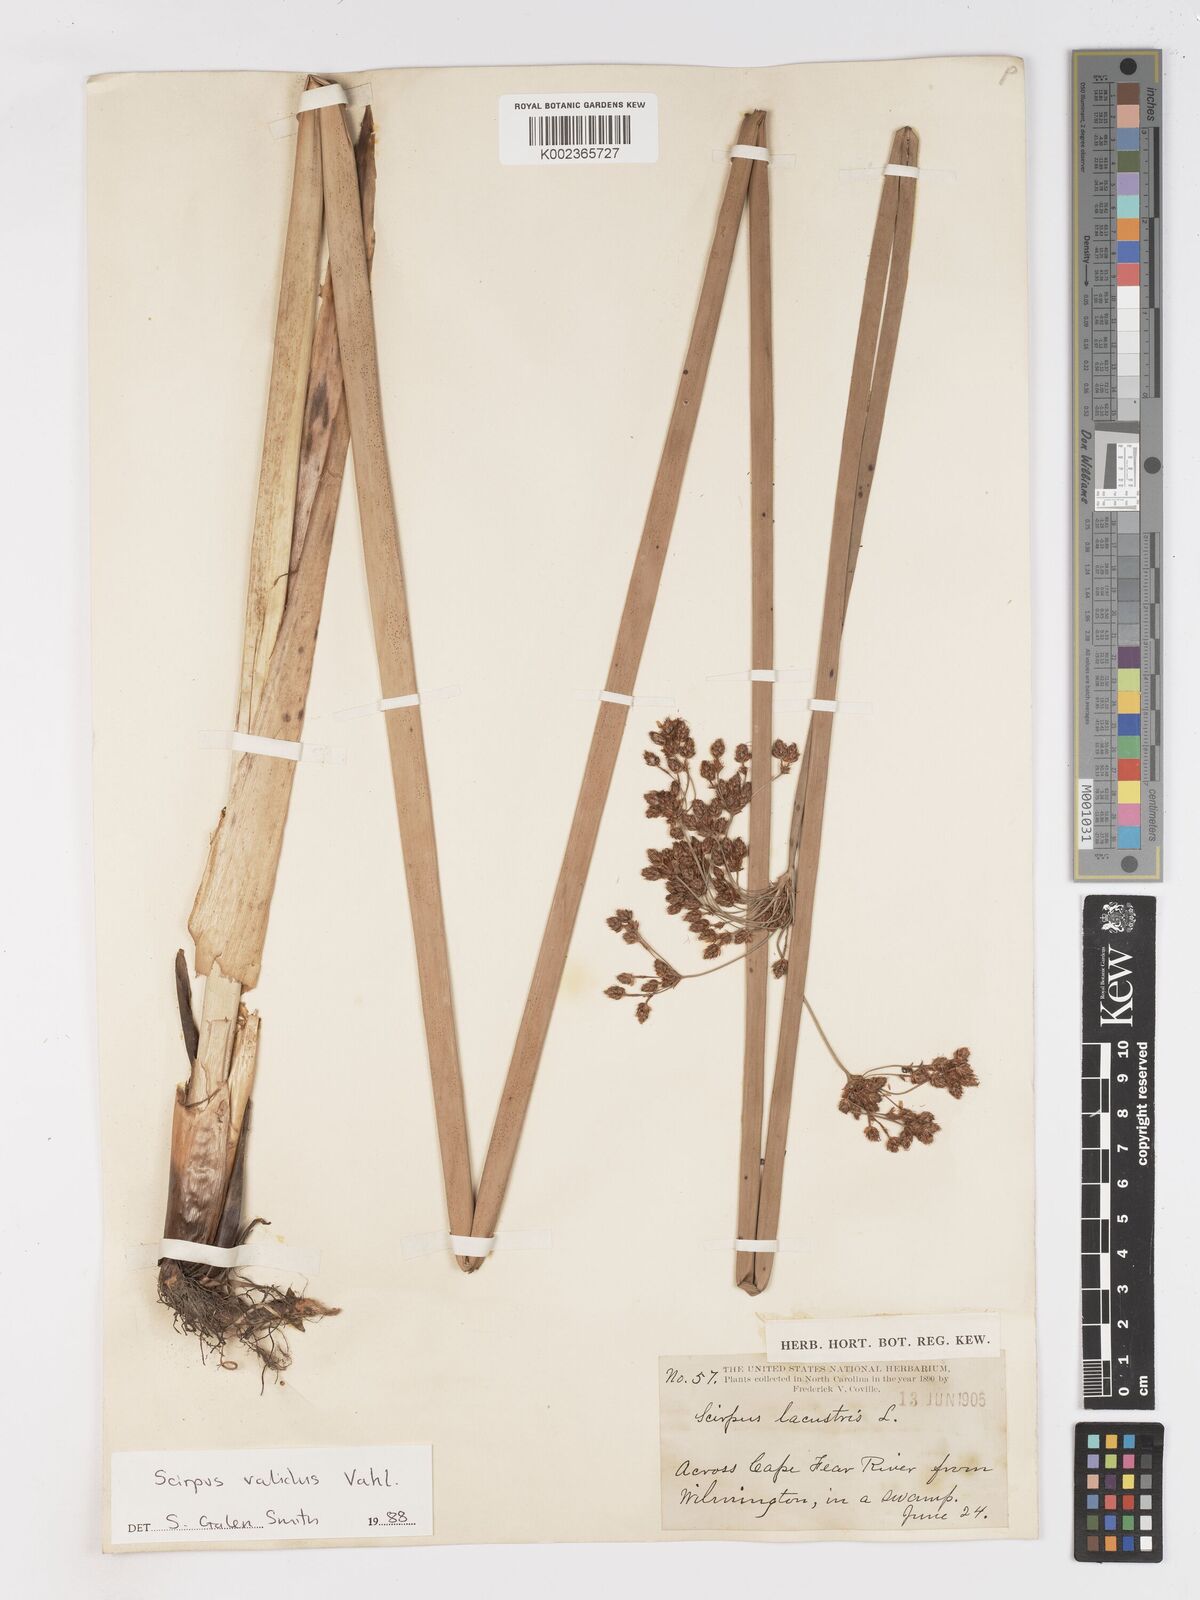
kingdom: Plantae
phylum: Tracheophyta
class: Liliopsida
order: Poales
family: Cyperaceae
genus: Schoenoplectus
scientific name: Schoenoplectus lacustris
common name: Common club-rush
